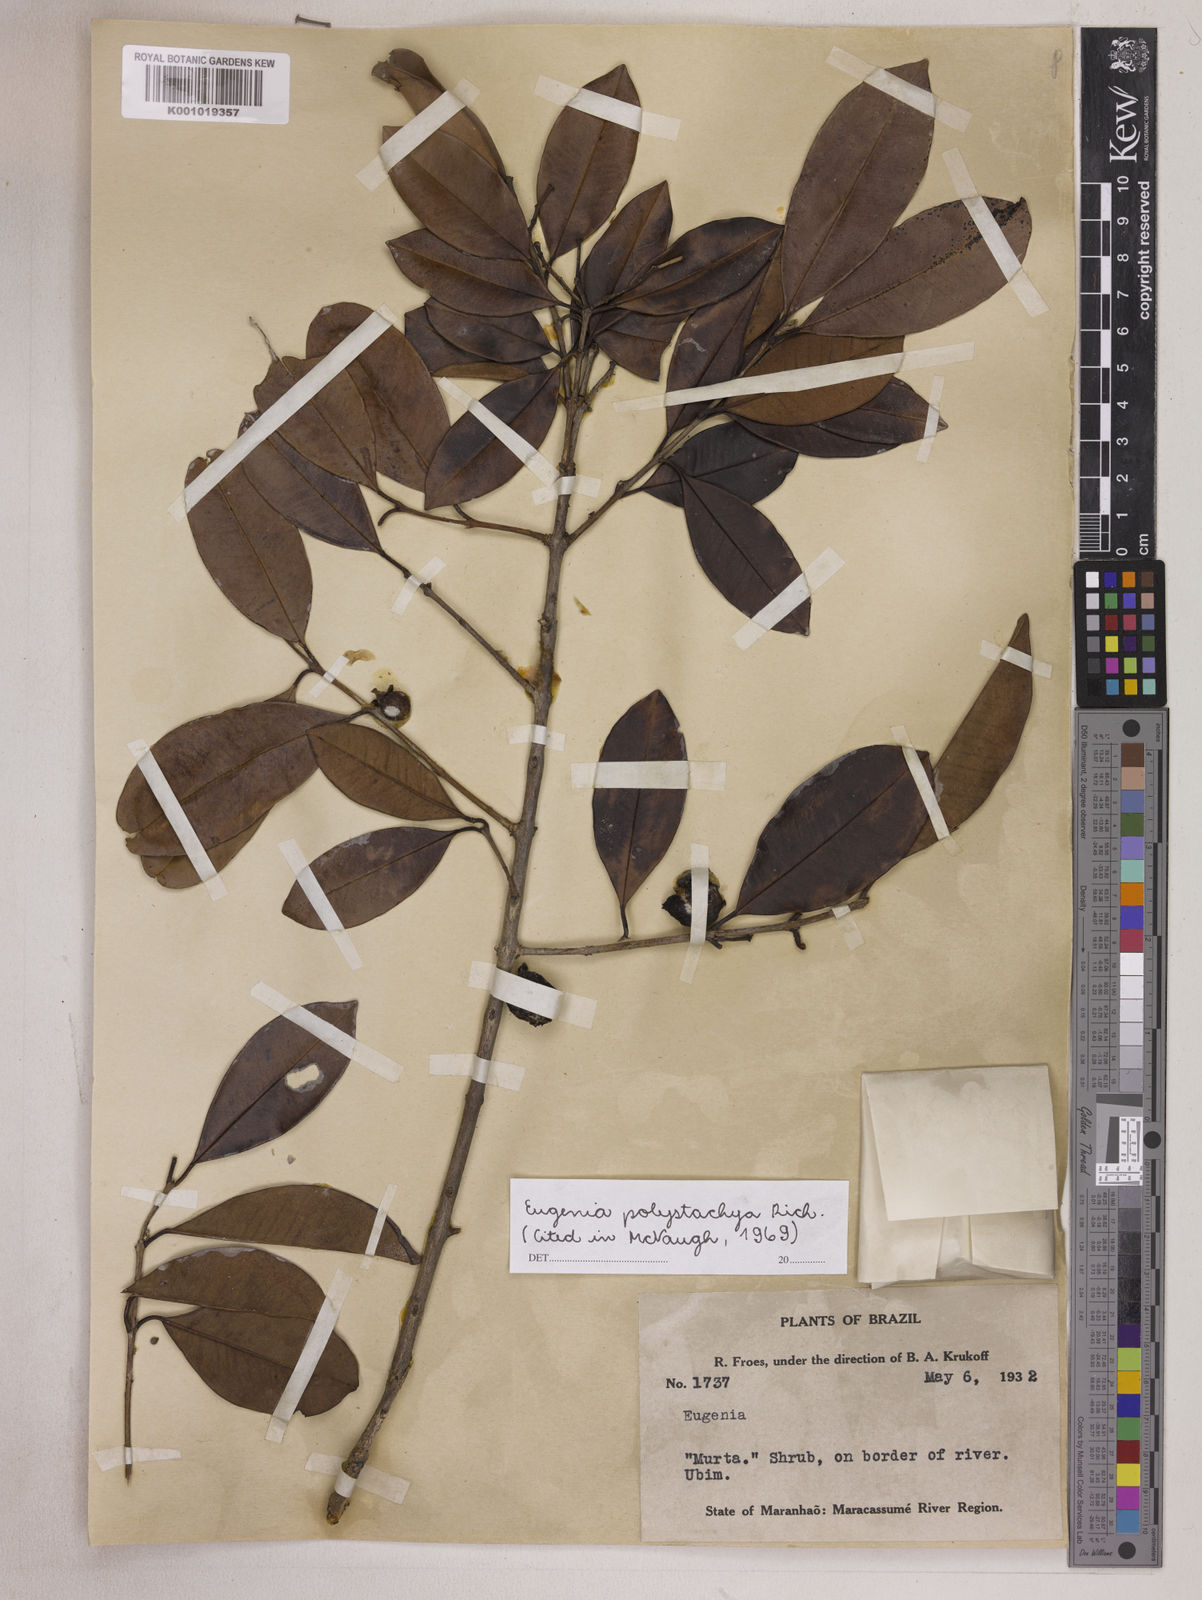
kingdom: Plantae
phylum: Tracheophyta
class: Magnoliopsida
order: Myrtales
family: Myrtaceae
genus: Eugenia
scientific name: Eugenia polystachya
